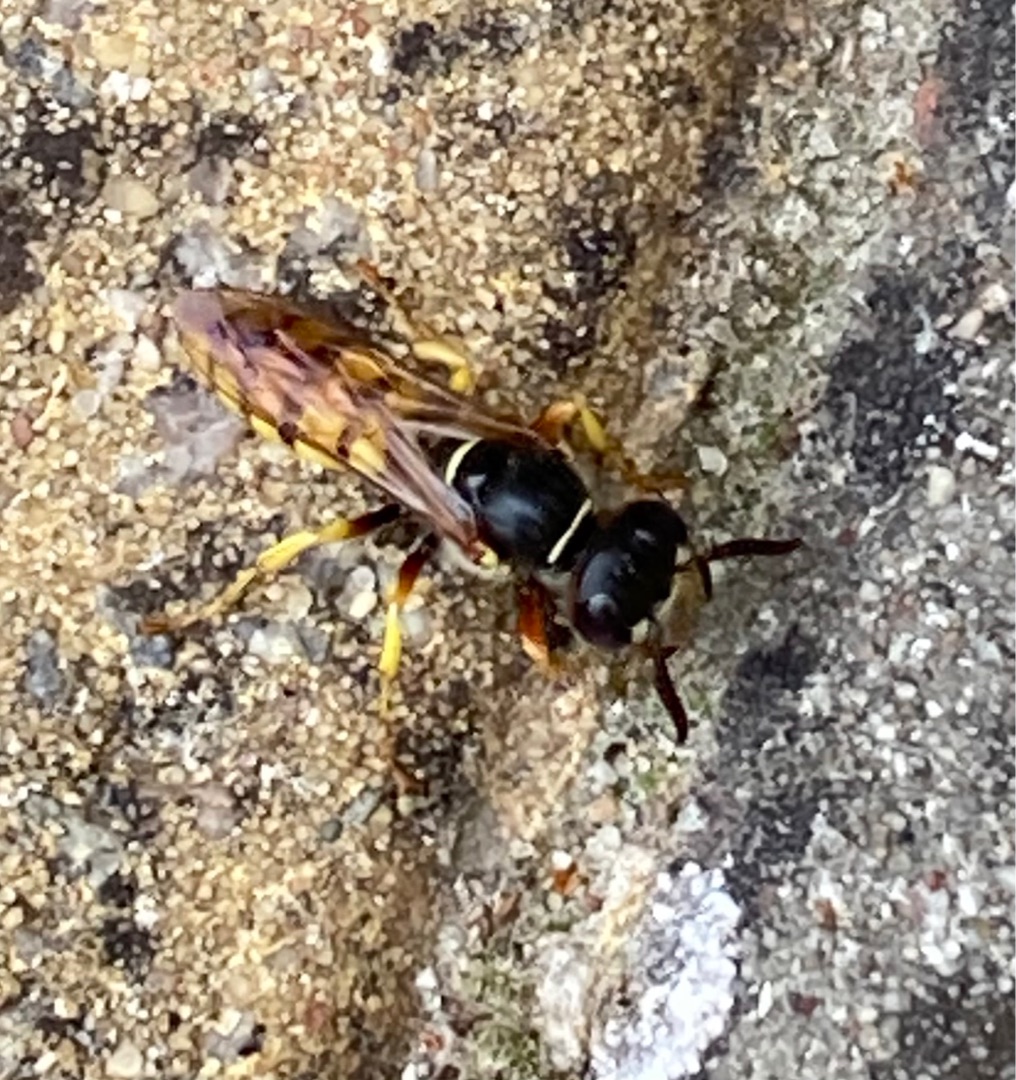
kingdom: Animalia
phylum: Arthropoda
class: Insecta
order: Hymenoptera
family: Crabronidae
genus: Philanthus
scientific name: Philanthus triangulum
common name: Biulv
